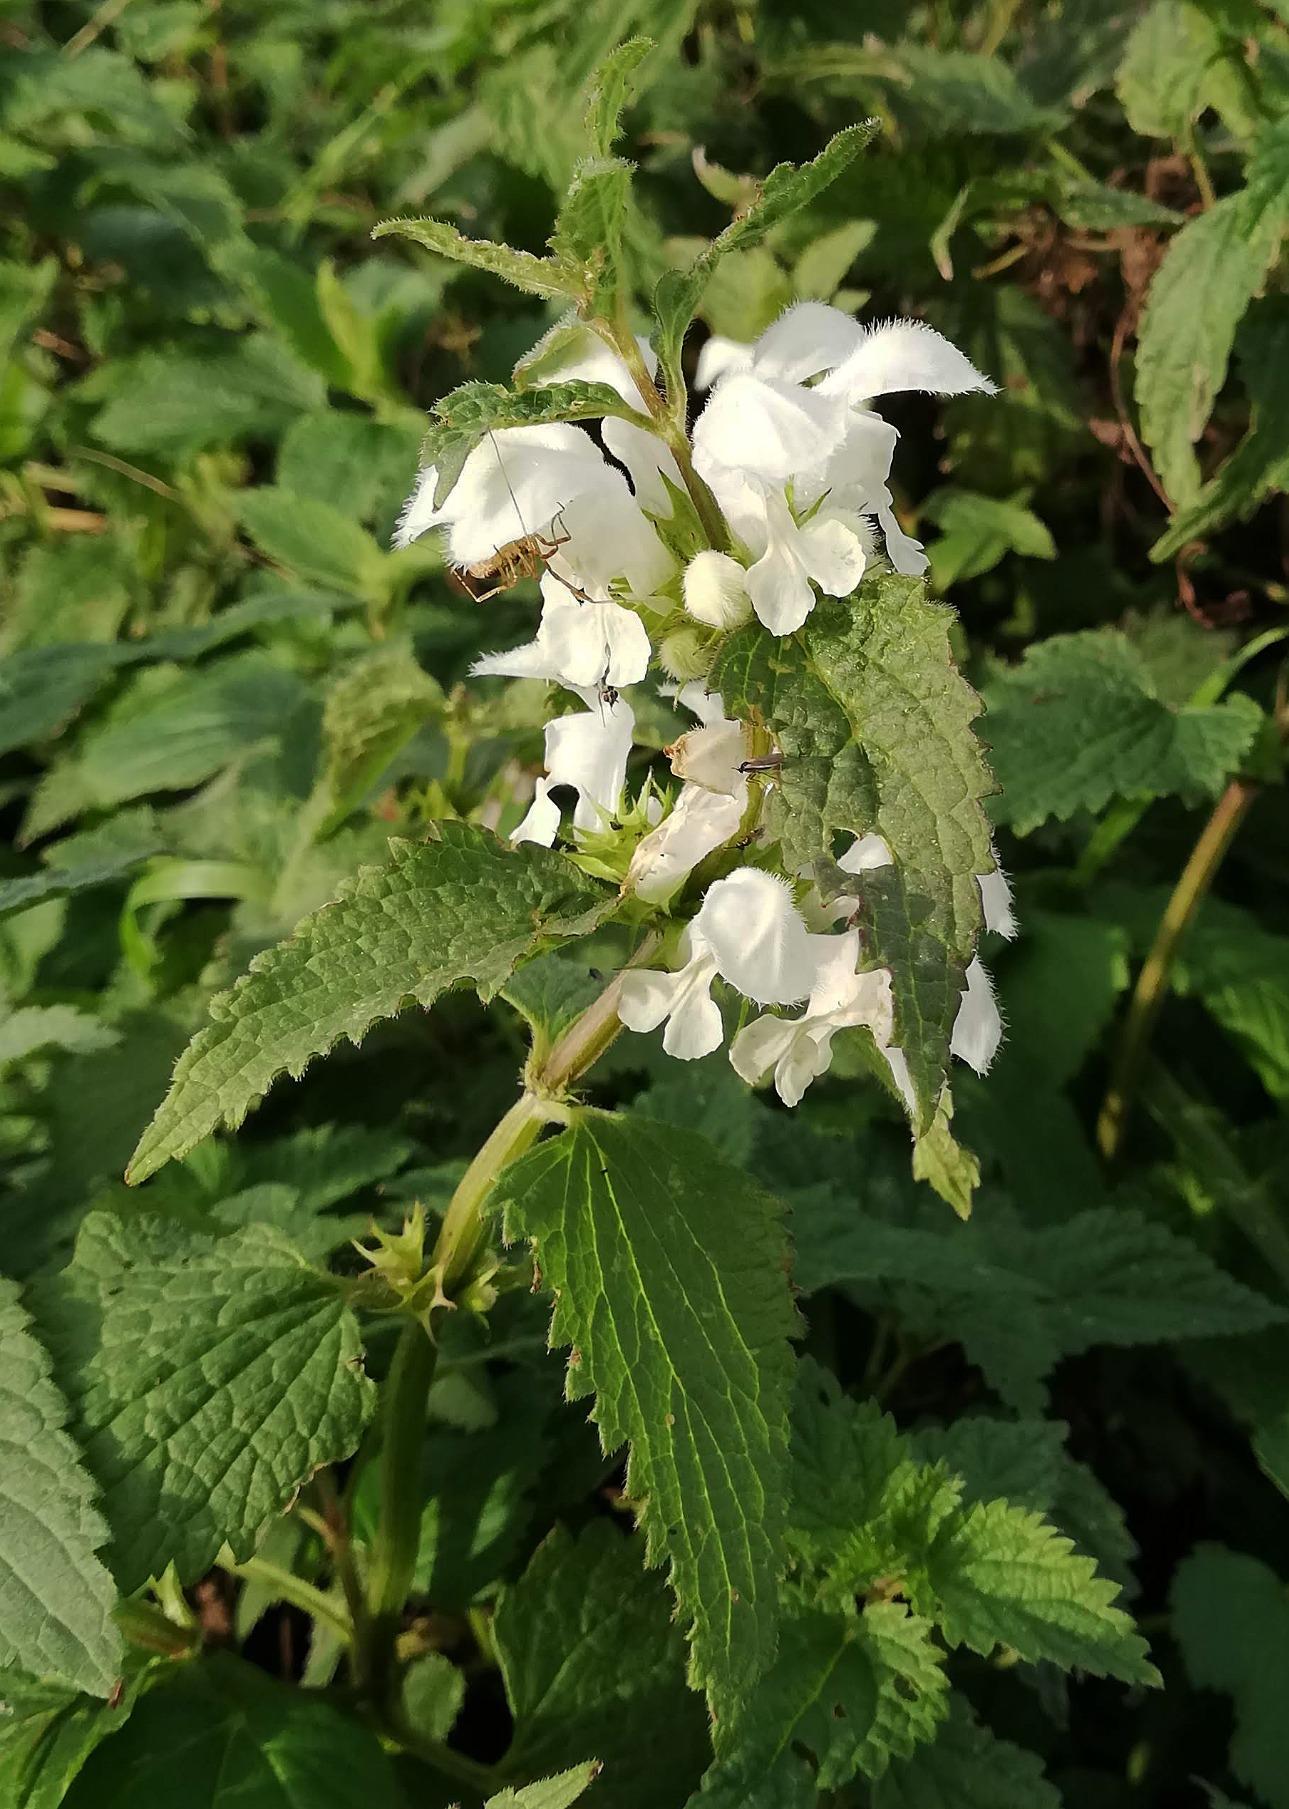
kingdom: Plantae
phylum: Tracheophyta
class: Magnoliopsida
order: Lamiales
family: Lamiaceae
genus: Lamium
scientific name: Lamium album
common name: Døvnælde
